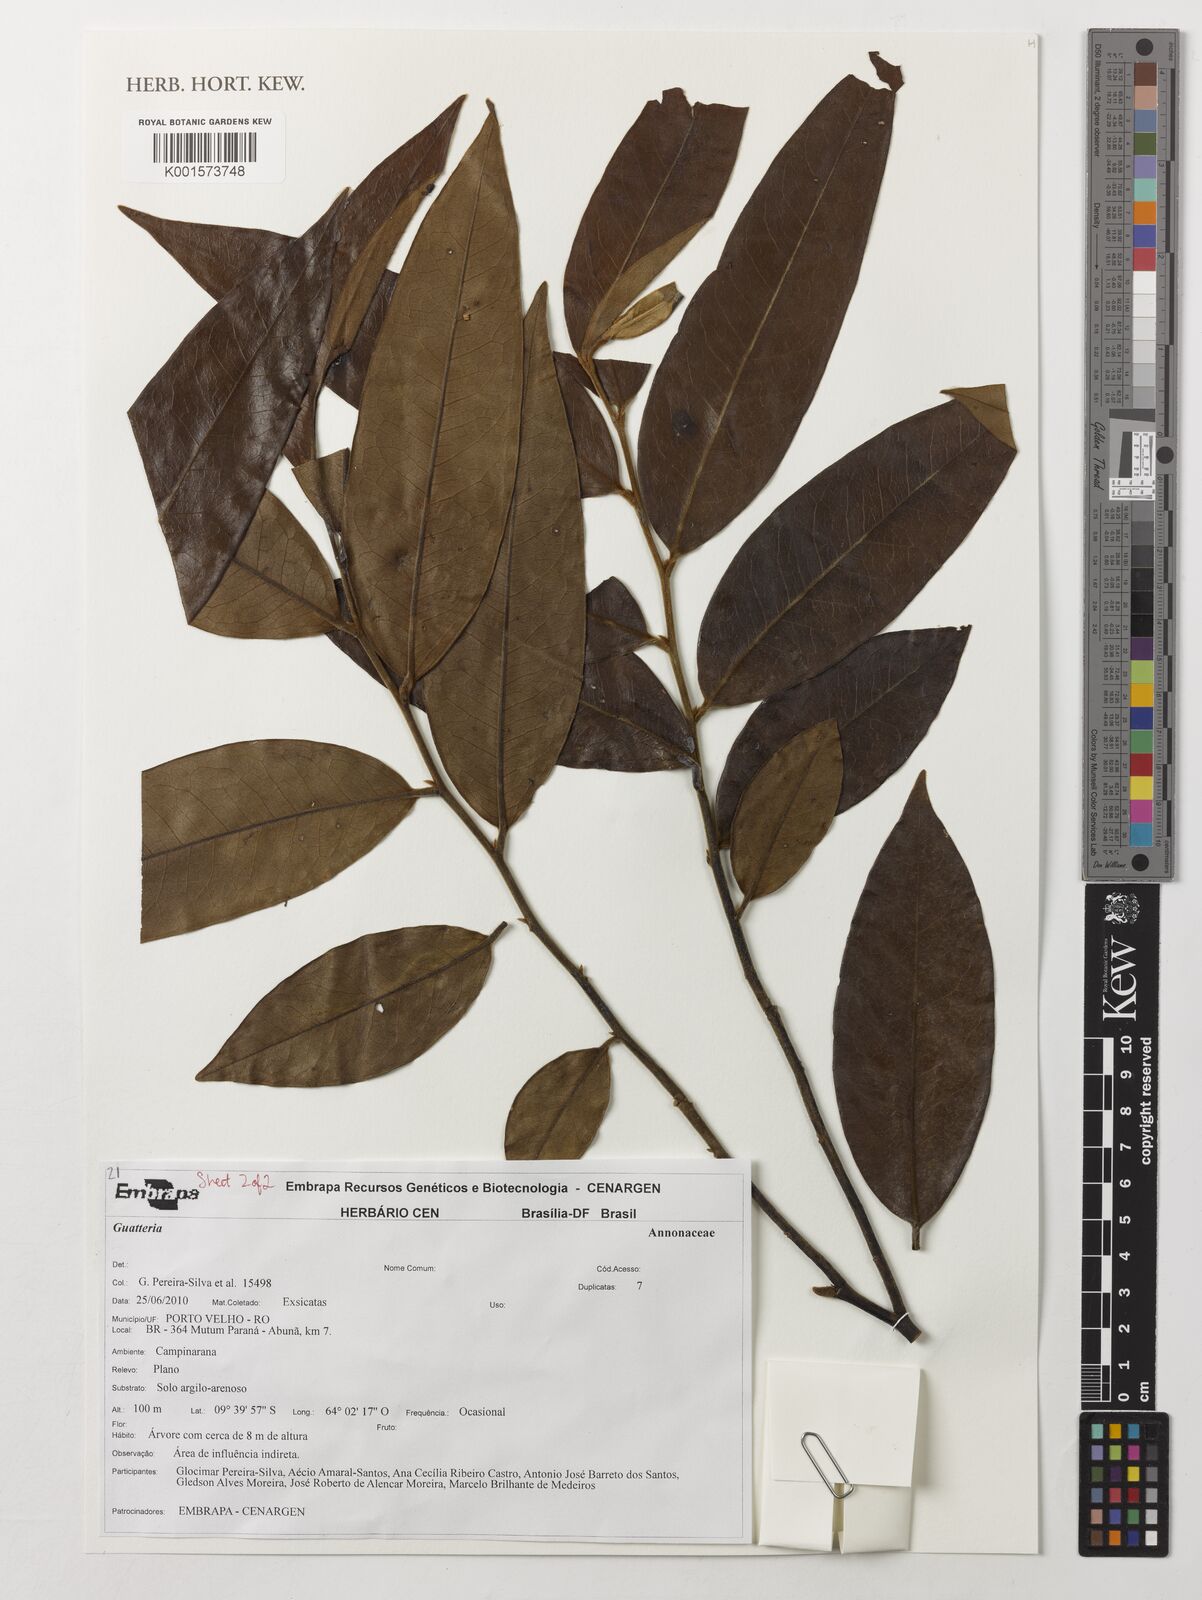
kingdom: Plantae
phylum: Tracheophyta
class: Magnoliopsida
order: Magnoliales
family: Annonaceae
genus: Guatteria
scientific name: Guatteria
